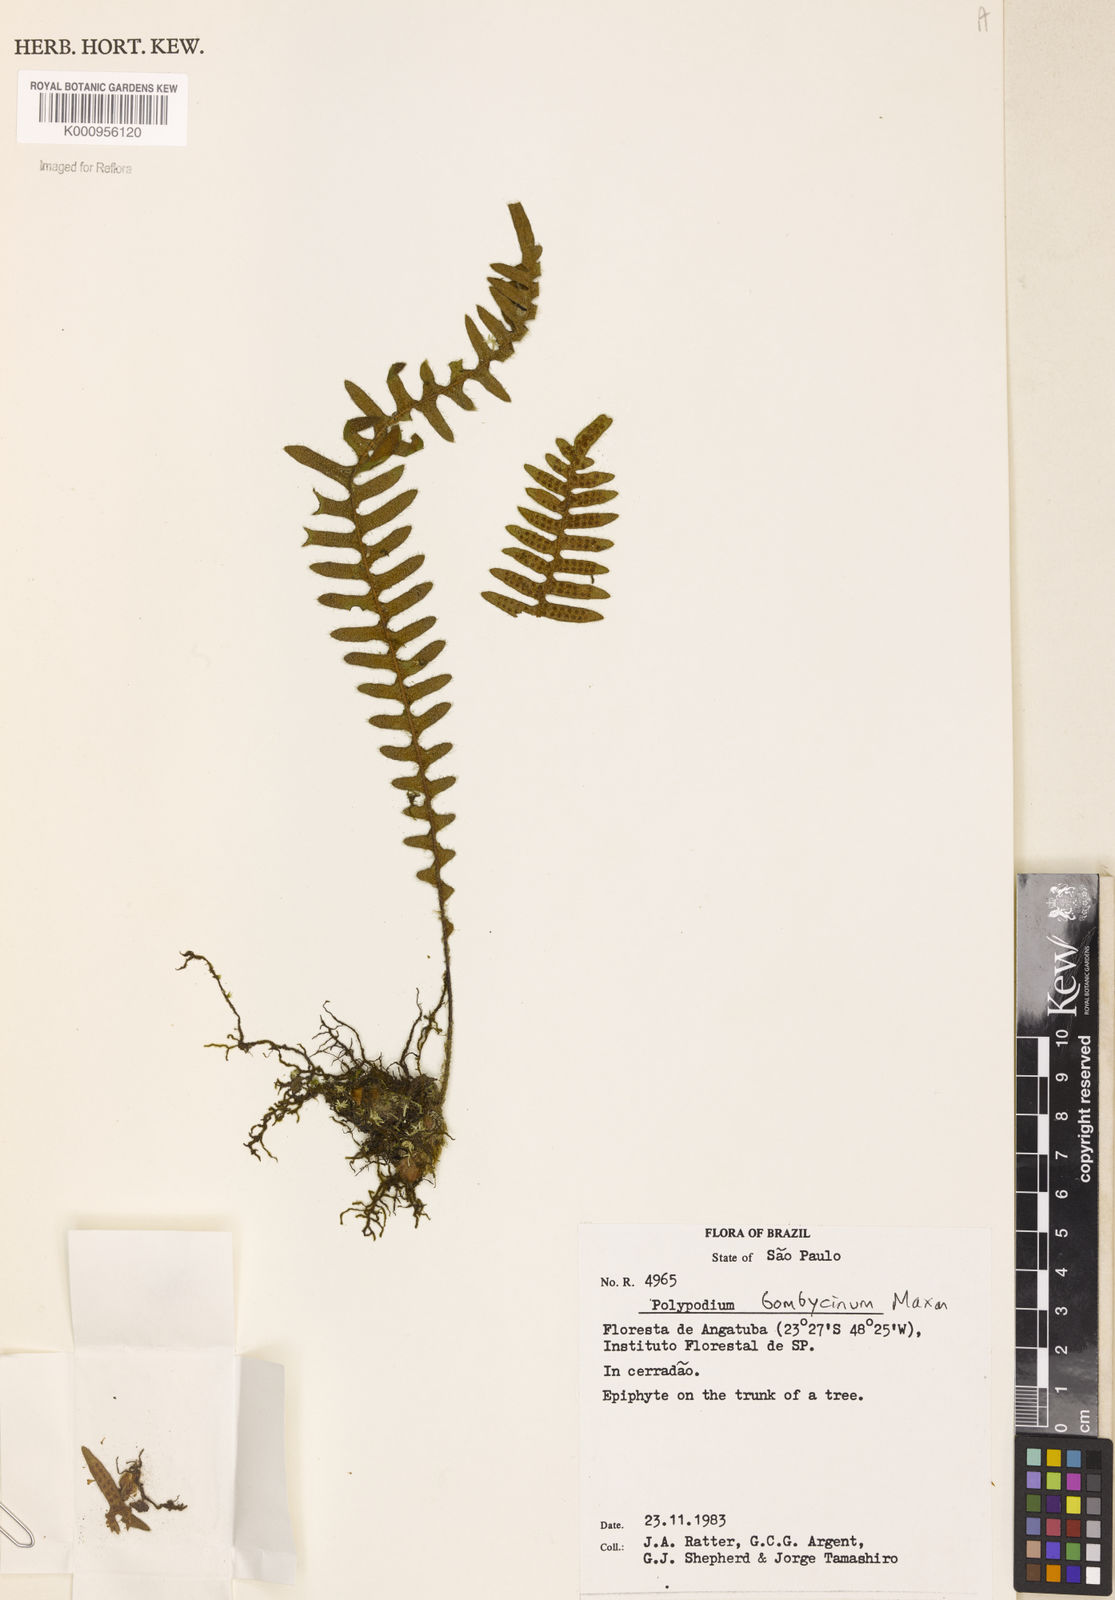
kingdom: Plantae
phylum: Tracheophyta
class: Polypodiopsida
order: Polypodiales
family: Polypodiaceae
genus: Pleopeltis
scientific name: Pleopeltis bombycina
